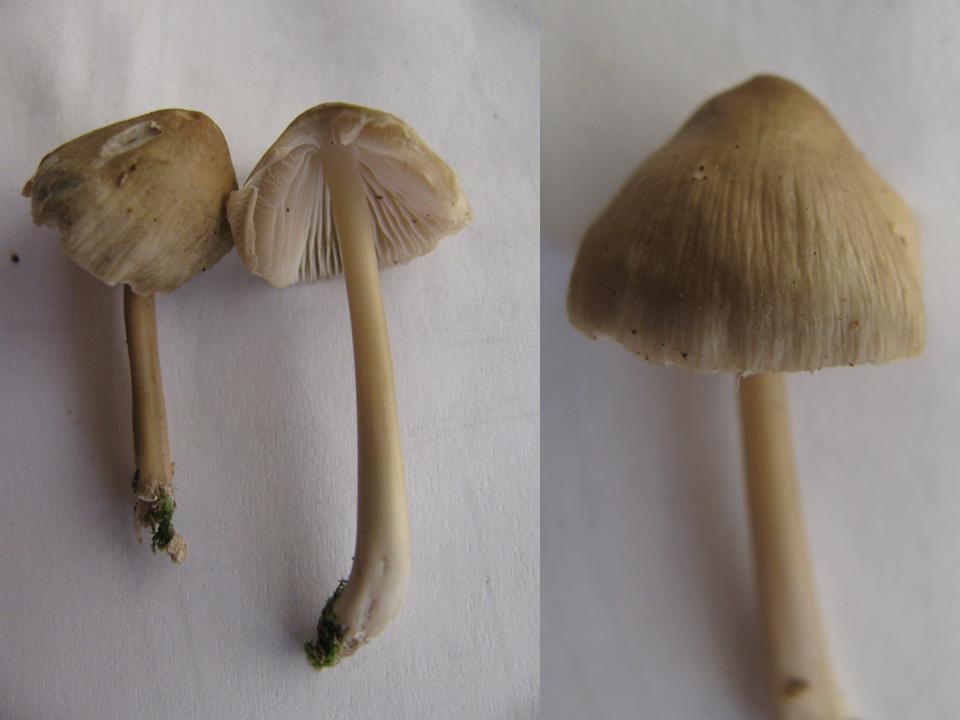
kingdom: Fungi
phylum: Basidiomycota
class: Agaricomycetes
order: Agaricales
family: Mycenaceae
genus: Mycena
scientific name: Mycena galericulata
